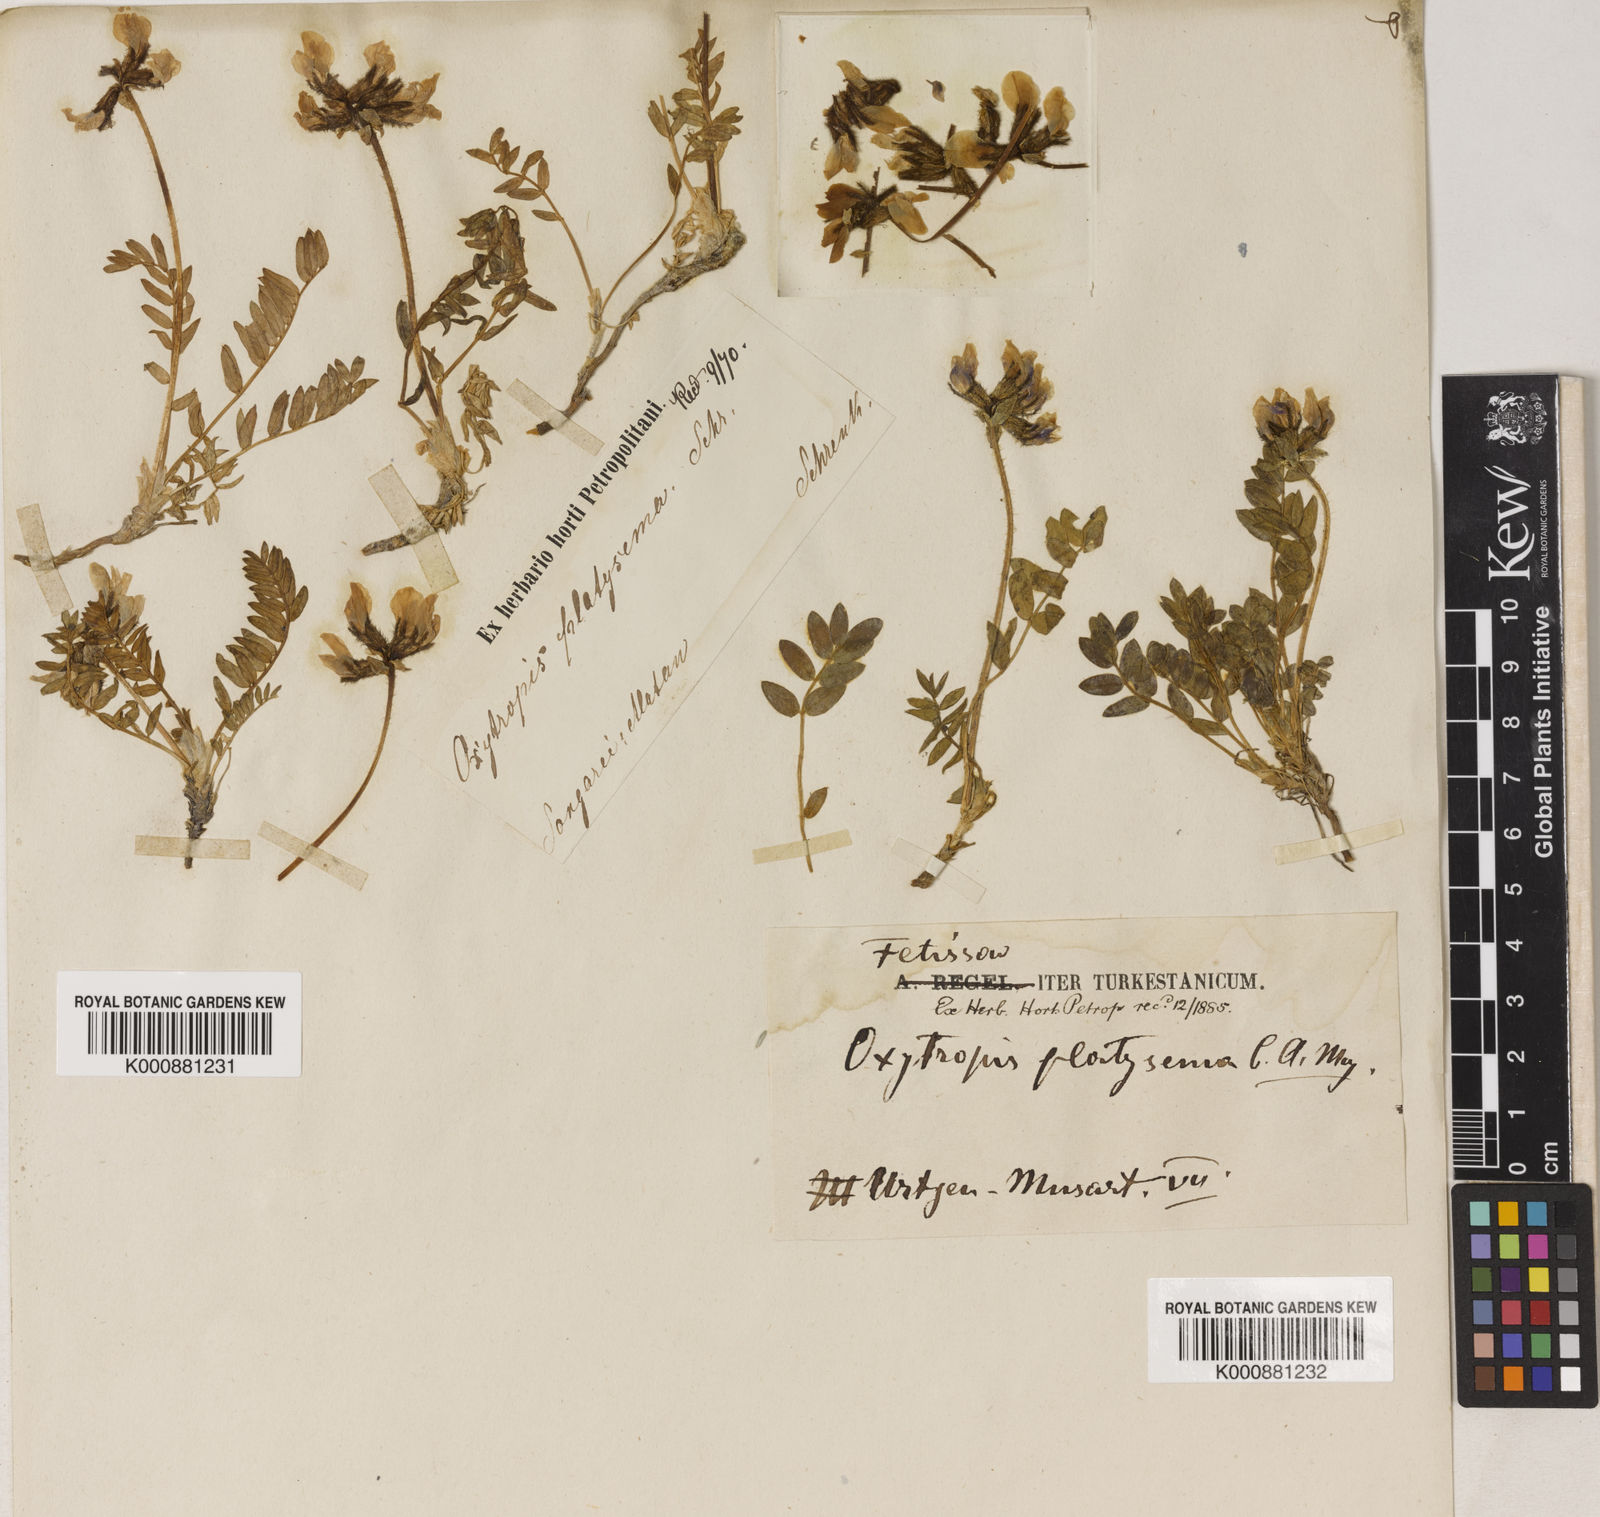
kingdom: Plantae
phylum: Tracheophyta
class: Magnoliopsida
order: Fabales
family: Fabaceae
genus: Oxytropis
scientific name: Oxytropis platysema
